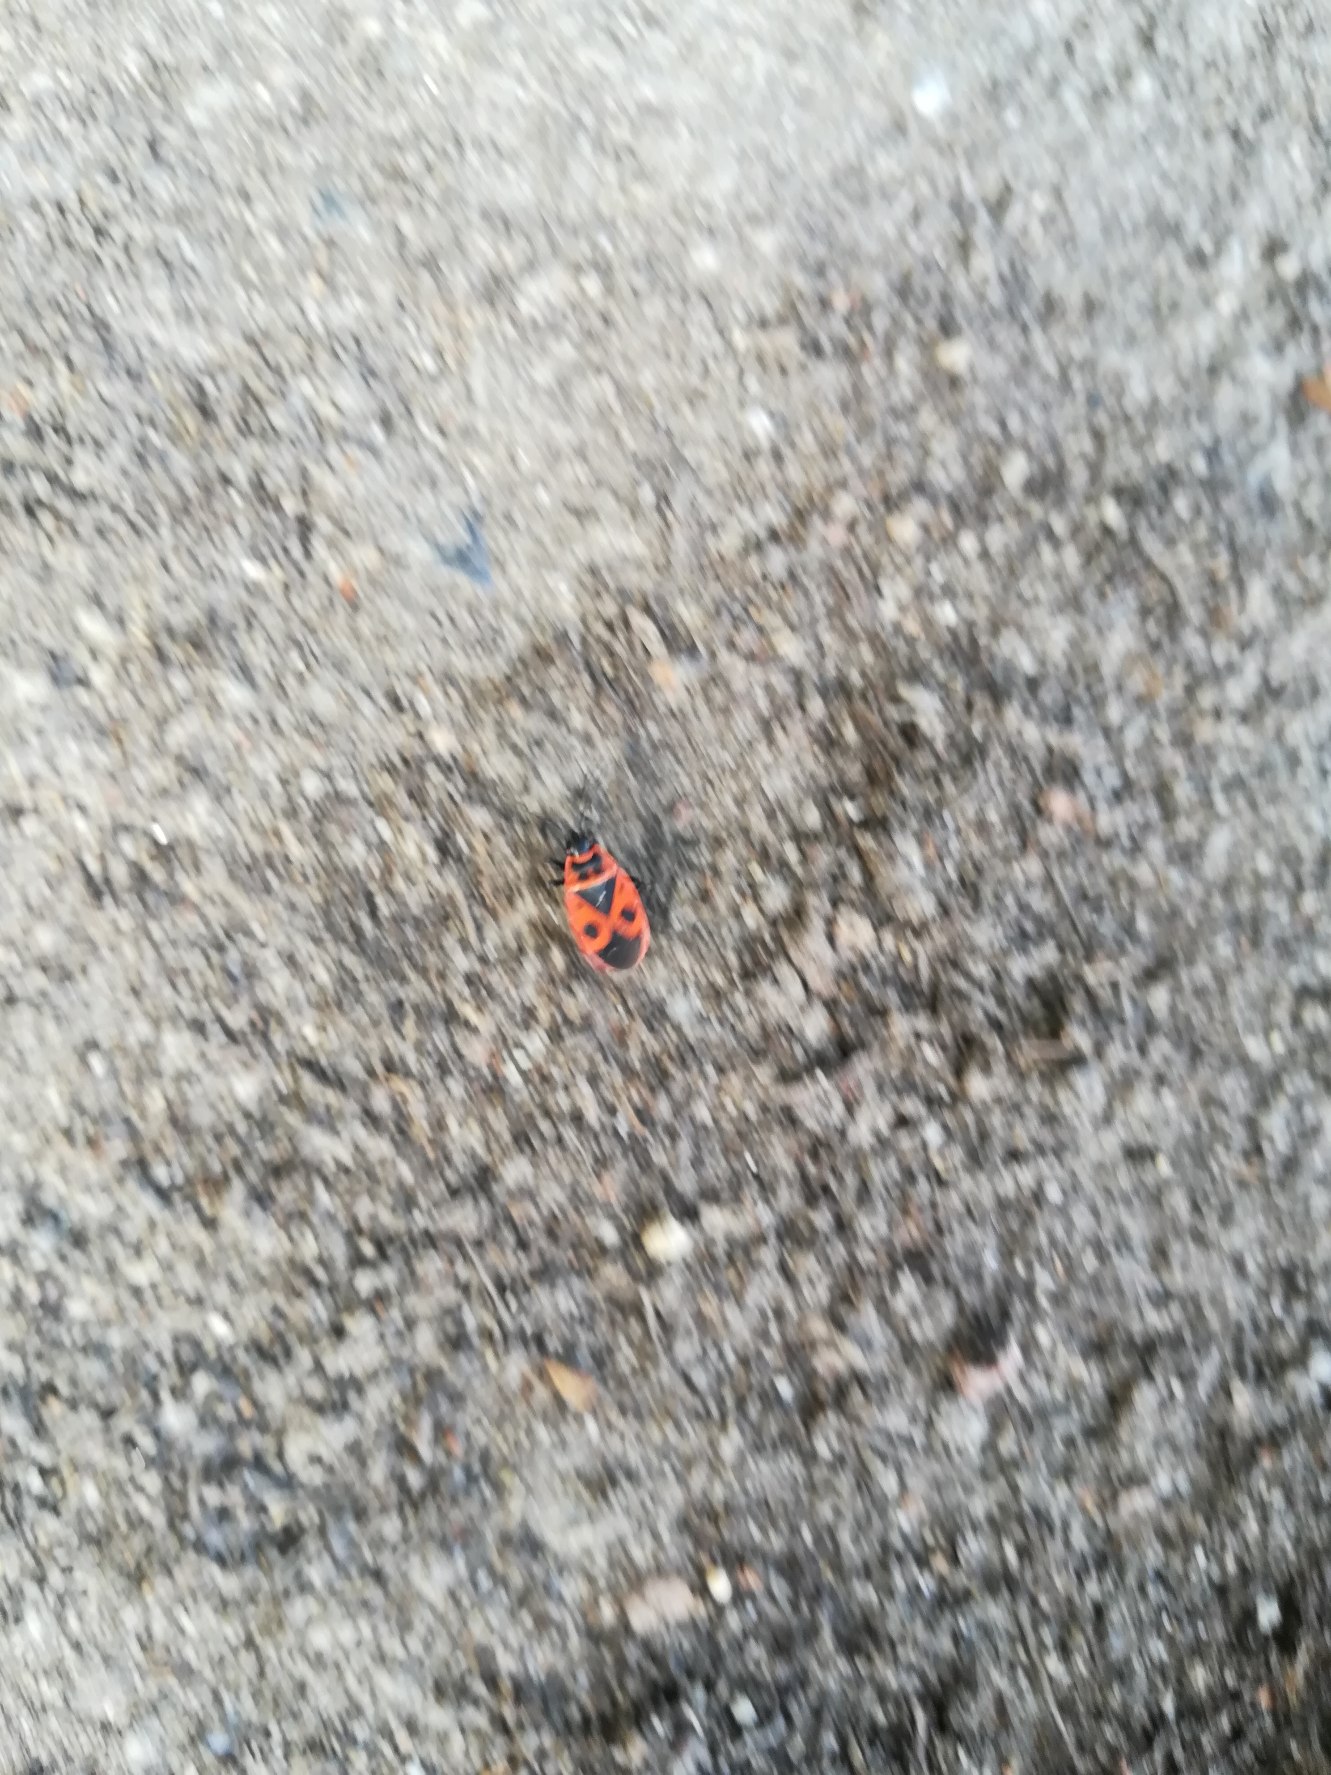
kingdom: Animalia
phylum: Arthropoda
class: Insecta
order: Hemiptera
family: Pyrrhocoridae
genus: Pyrrhocoris
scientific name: Pyrrhocoris apterus
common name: Ildtæge
